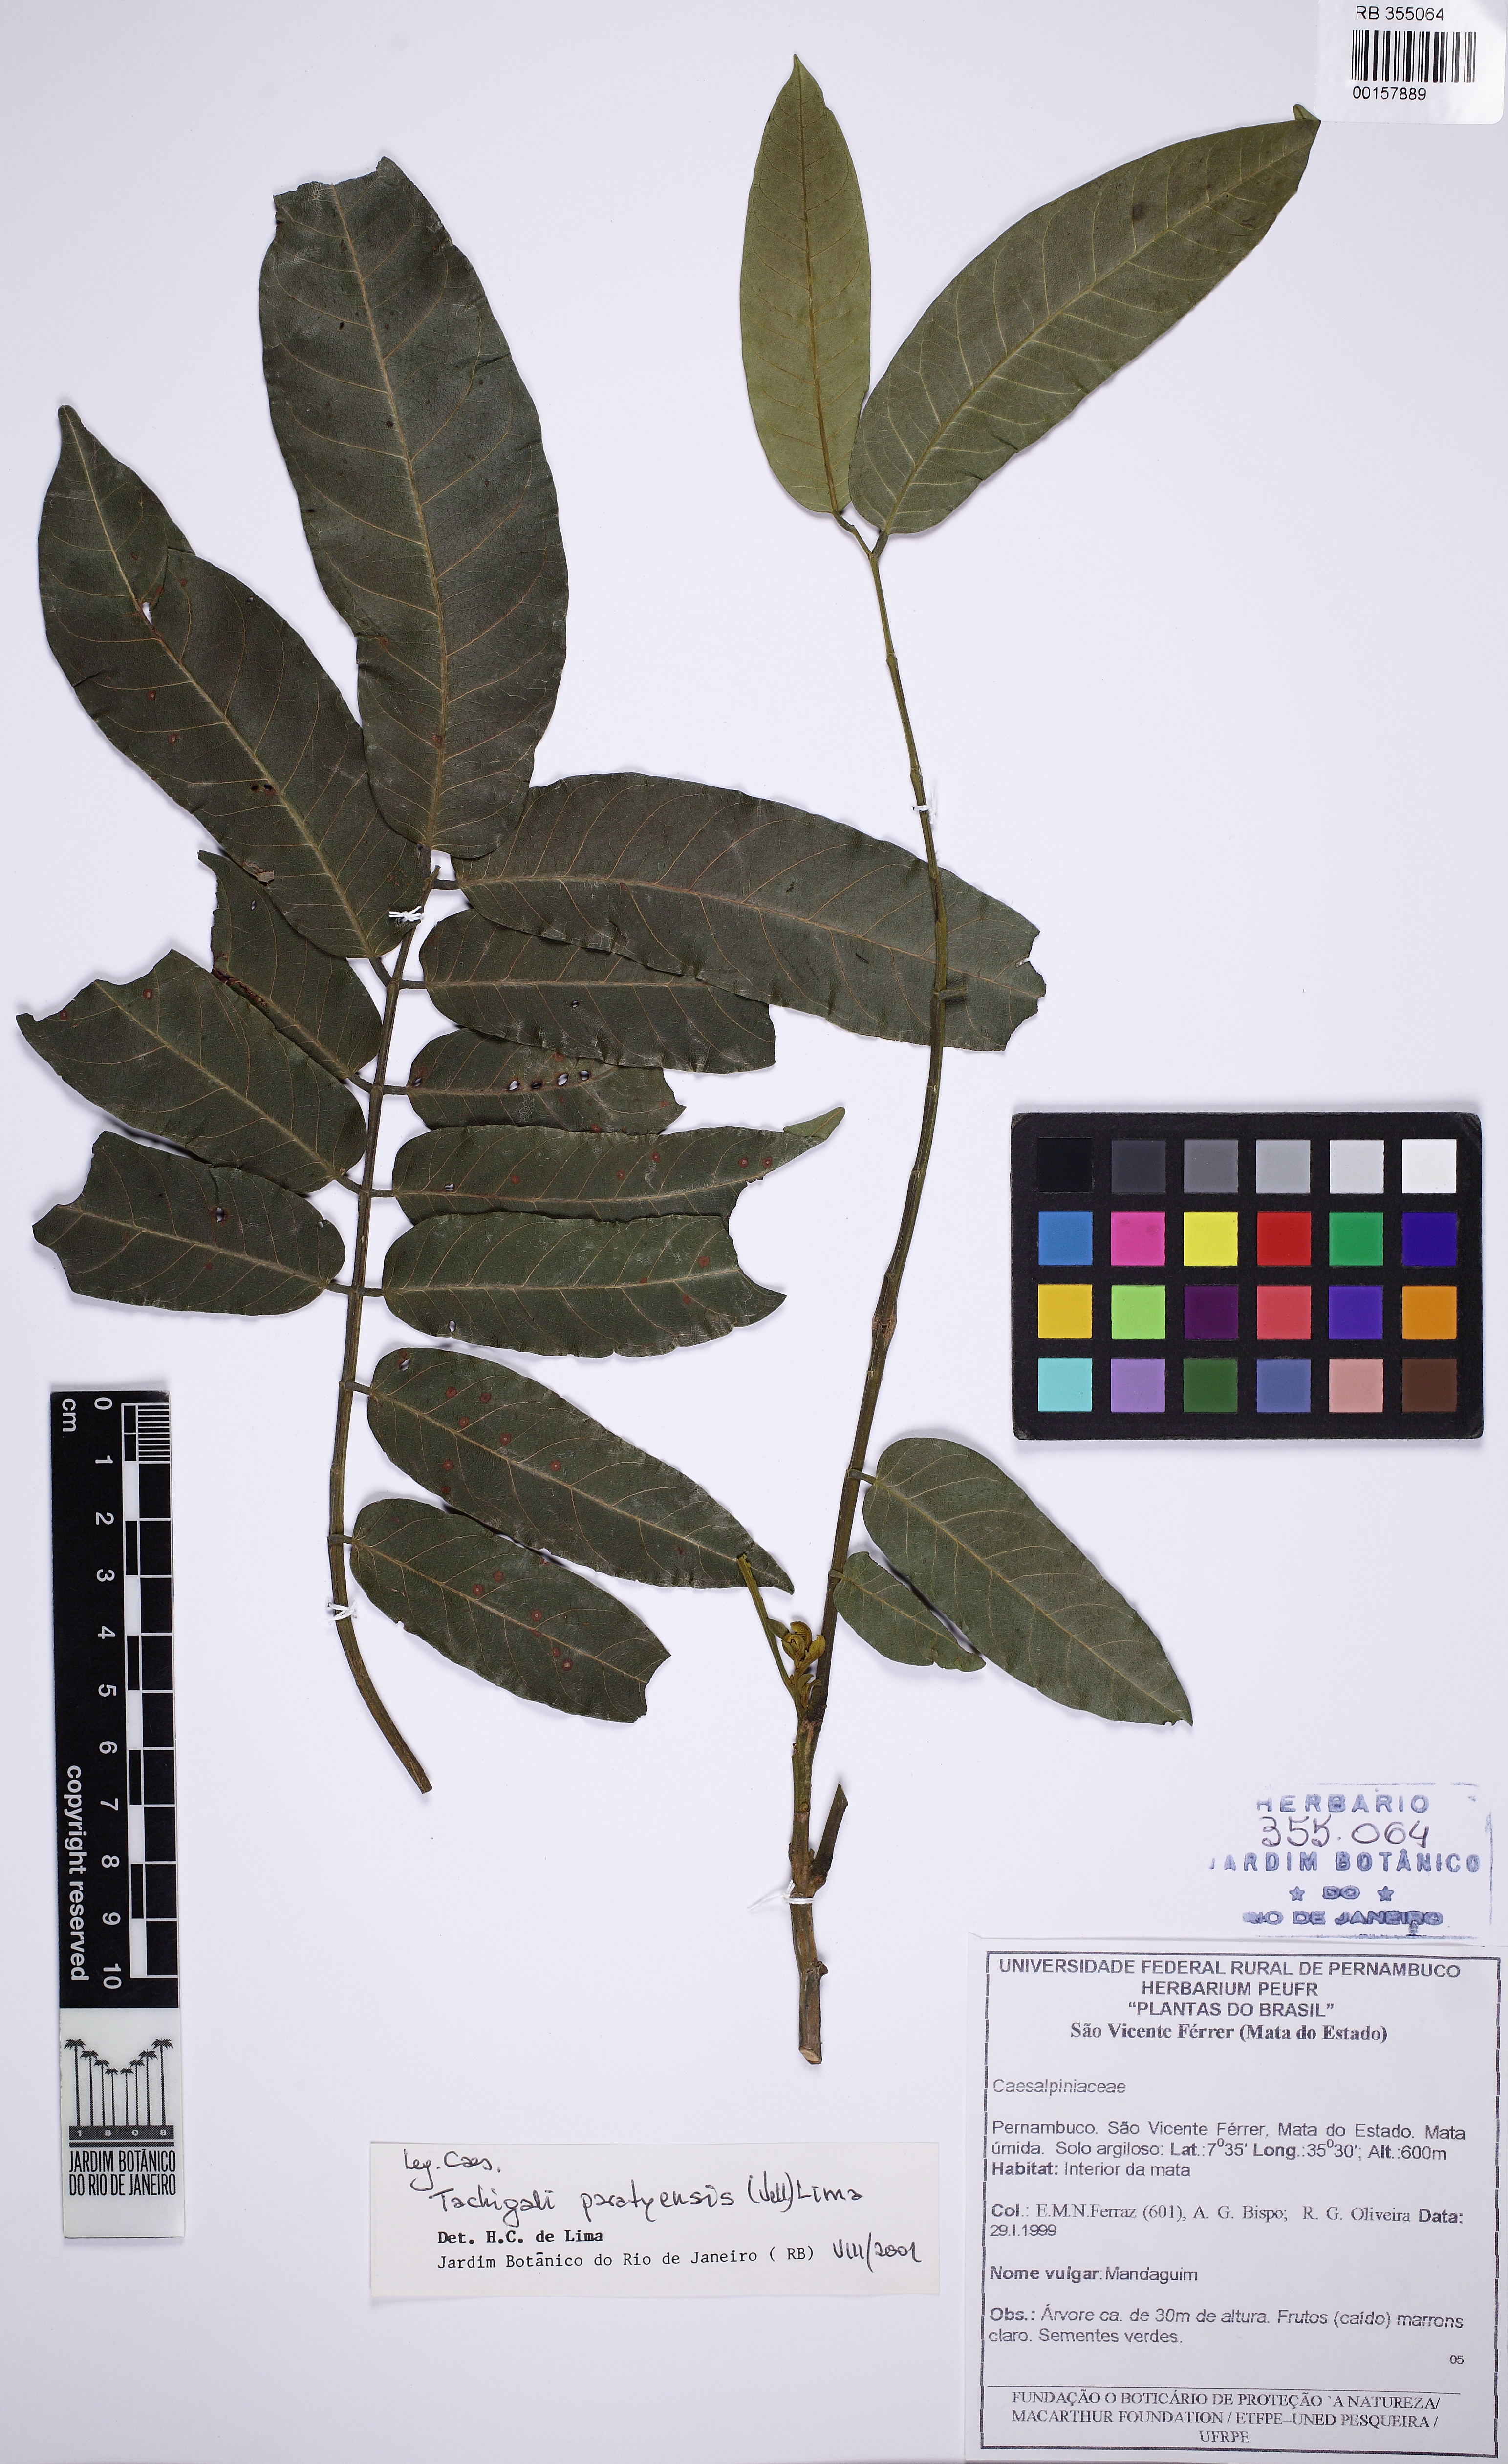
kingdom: Plantae
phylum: Tracheophyta
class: Magnoliopsida
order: Fabales
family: Fabaceae
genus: Tachigali
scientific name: Tachigali paratyensis
